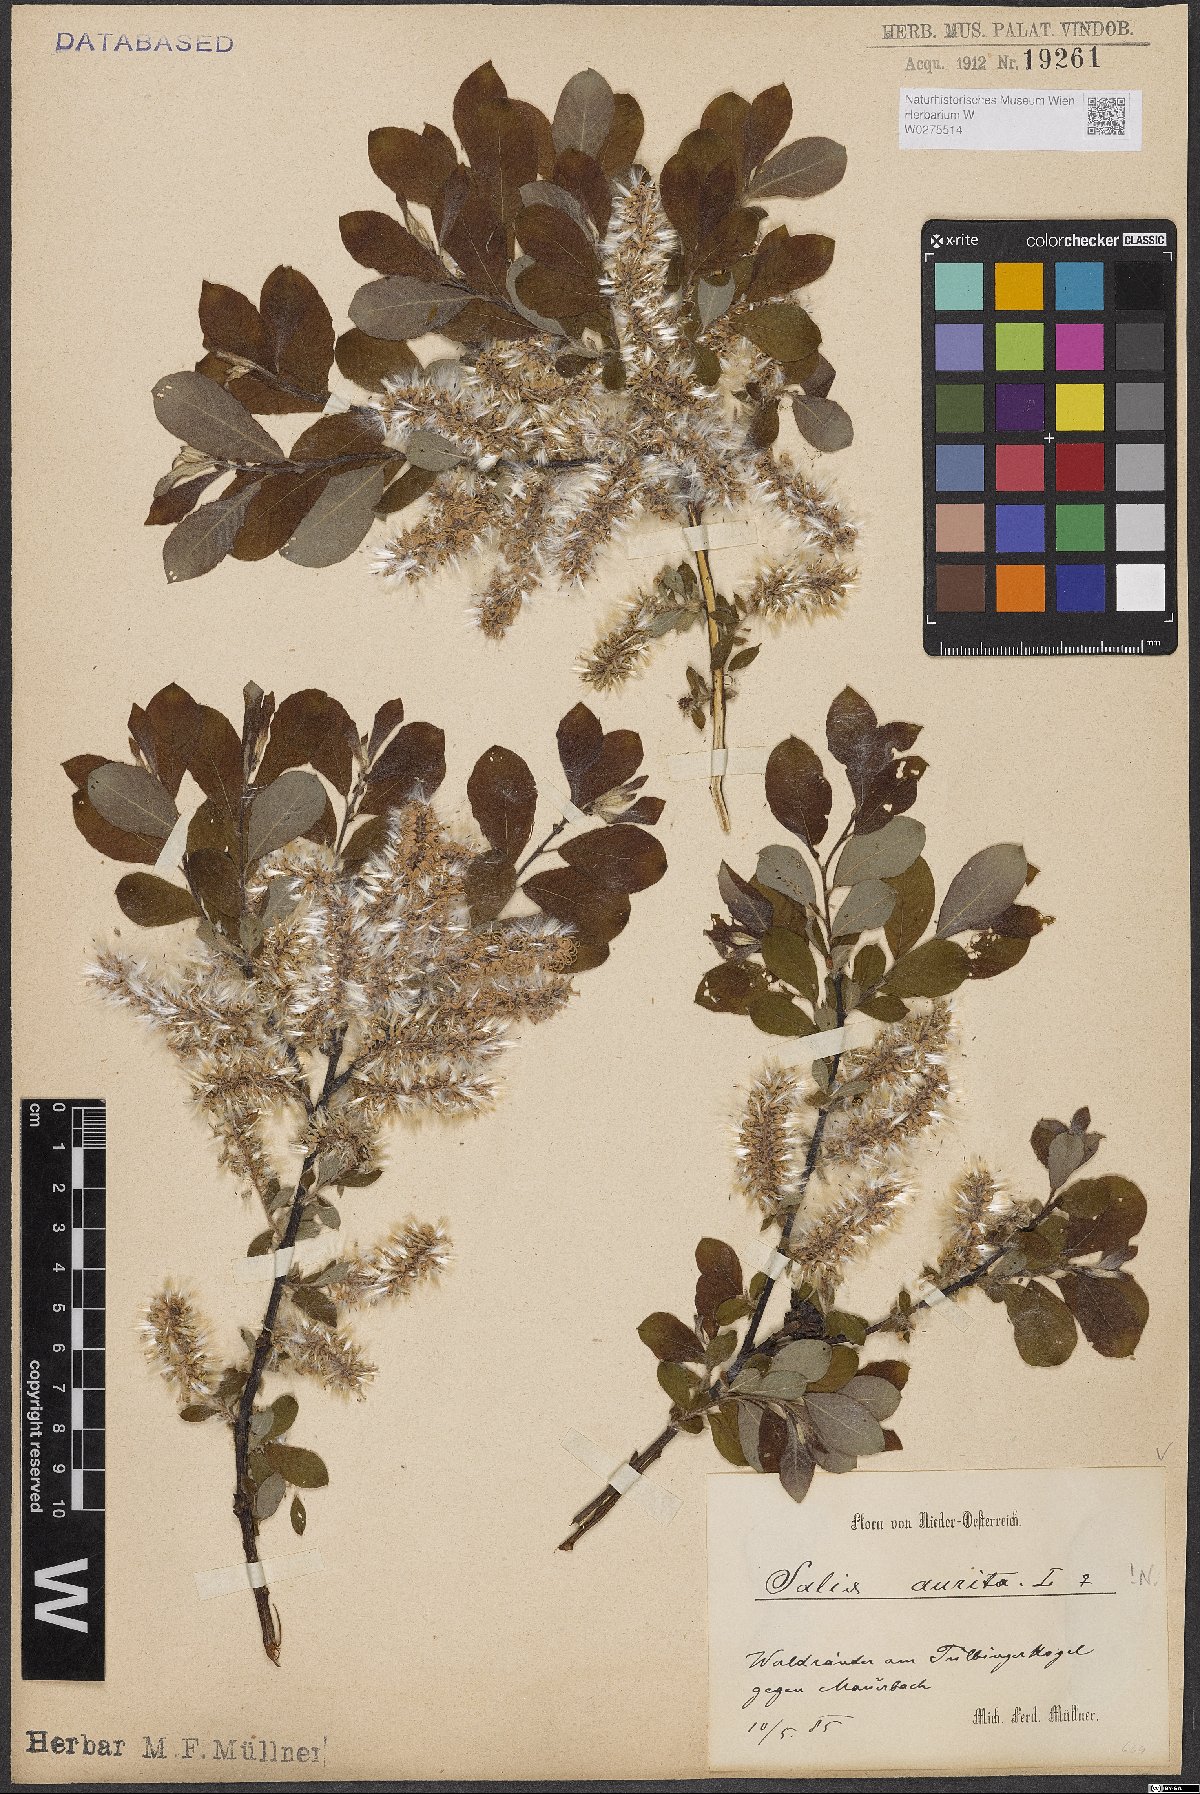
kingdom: Plantae
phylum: Tracheophyta
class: Magnoliopsida
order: Malpighiales
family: Salicaceae
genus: Salix
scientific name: Salix aurita
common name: Eared willow
